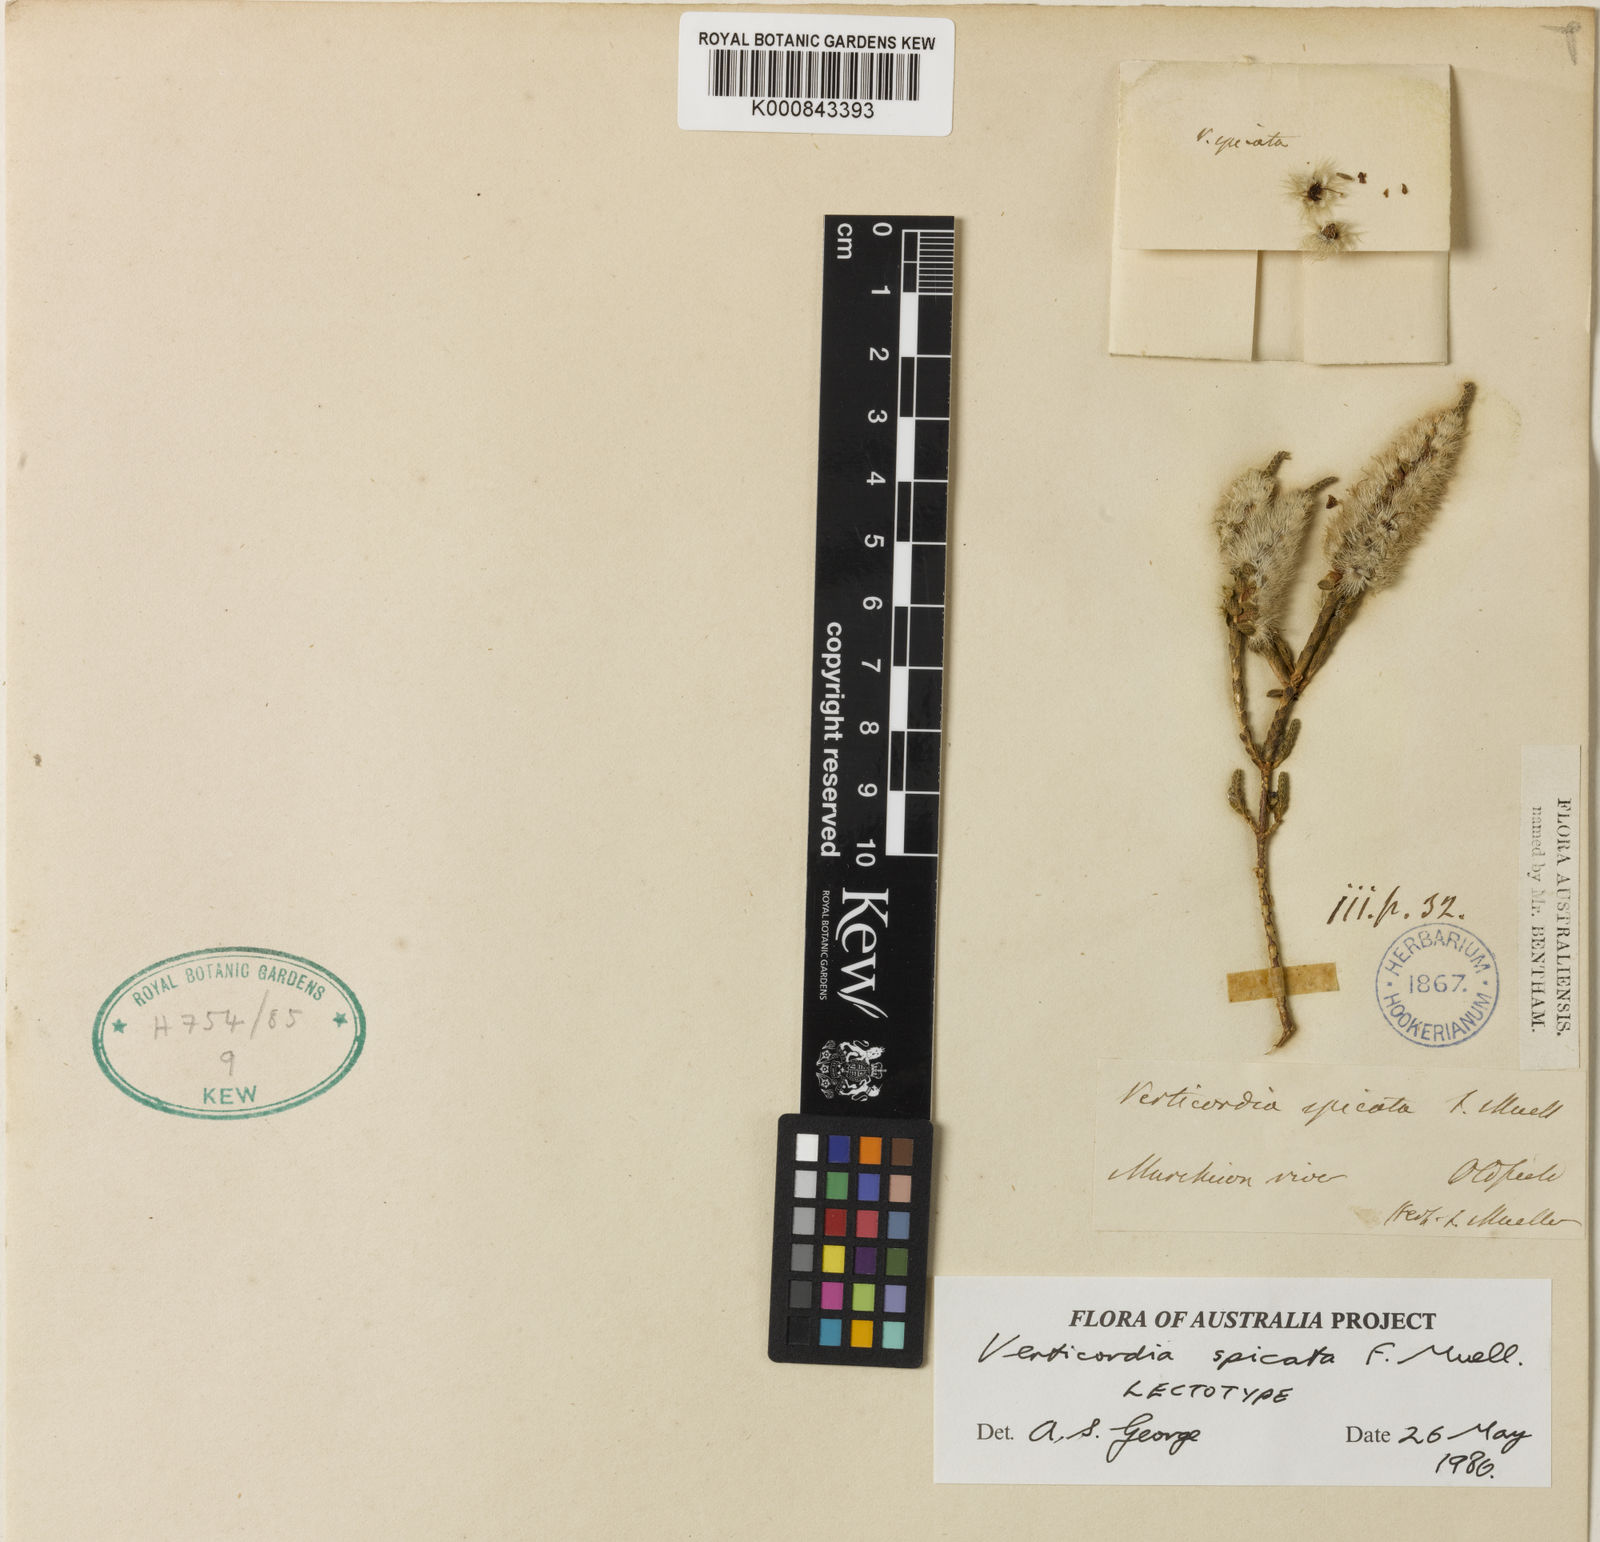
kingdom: Plantae
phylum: Tracheophyta
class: Magnoliopsida
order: Myrtales
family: Myrtaceae
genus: Verticordia
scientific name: Verticordia spicata
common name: Spike feather-flower
